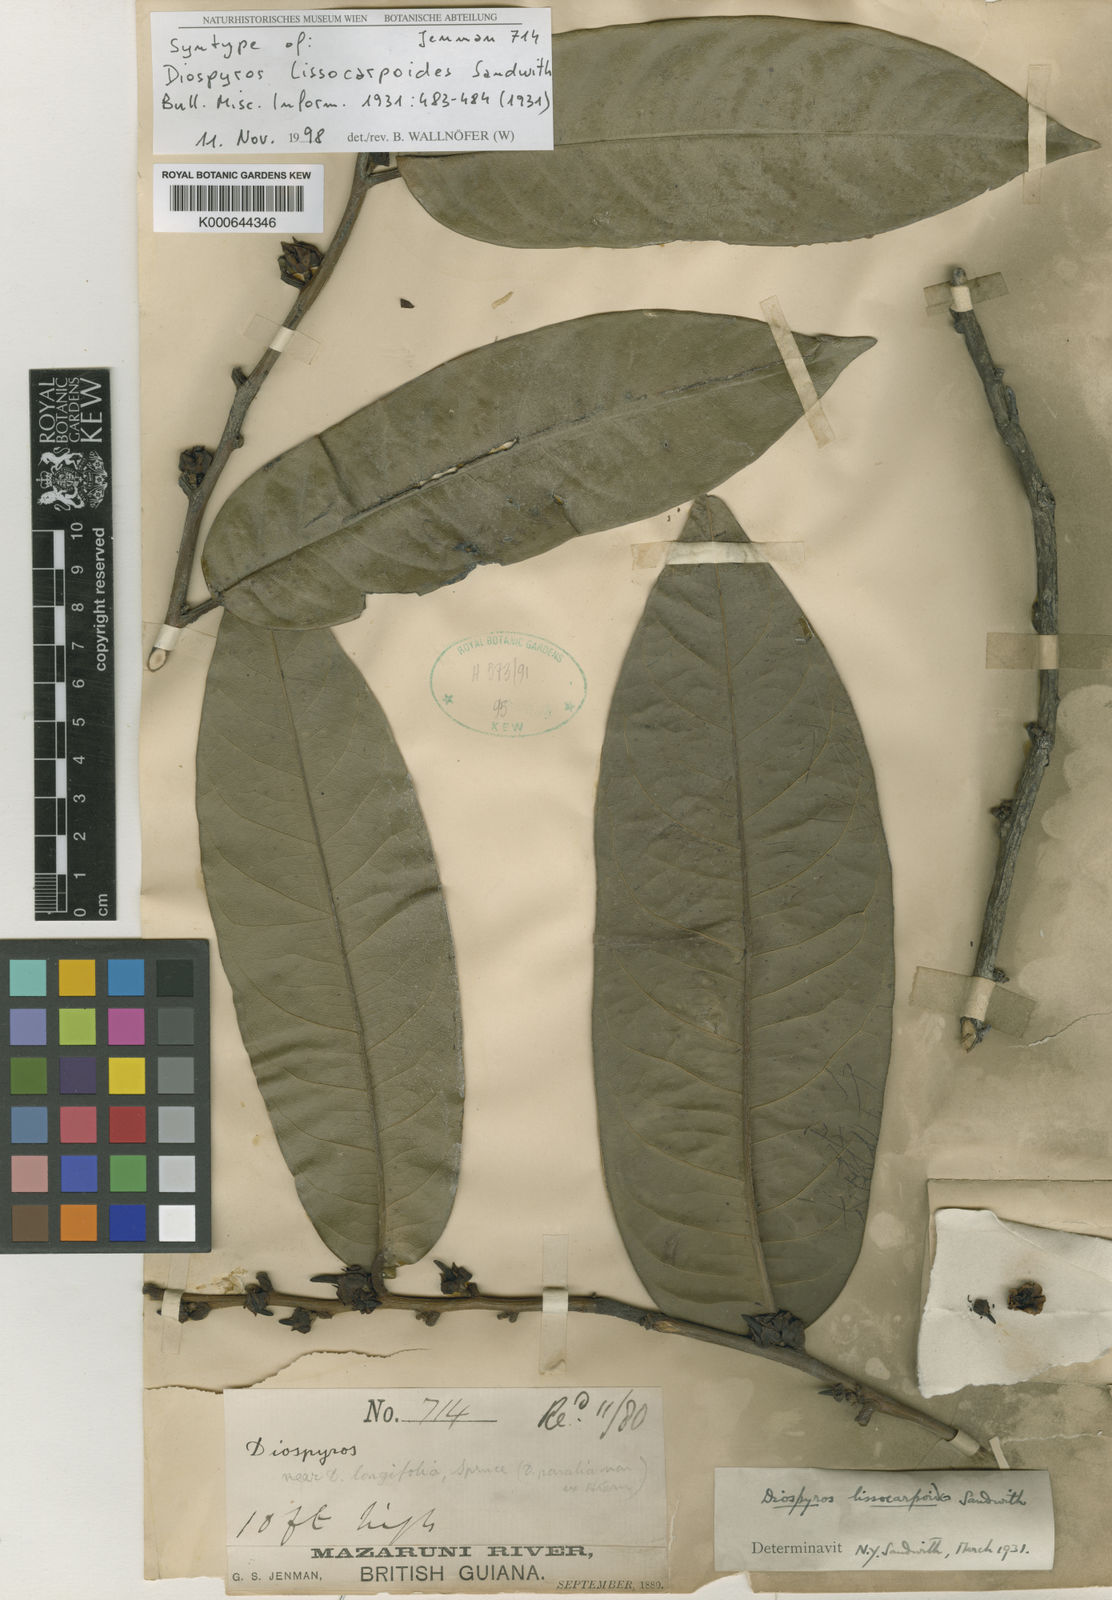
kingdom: Plantae
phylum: Tracheophyta
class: Magnoliopsida
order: Ericales
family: Ebenaceae
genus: Diospyros
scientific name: Diospyros lissocarpoides
